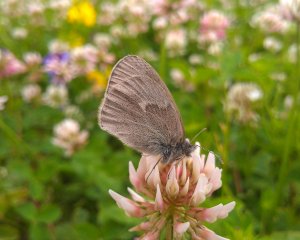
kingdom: Animalia
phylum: Arthropoda
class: Insecta
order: Lepidoptera
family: Nymphalidae
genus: Coenonympha
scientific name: Coenonympha tullia
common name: Large Heath
